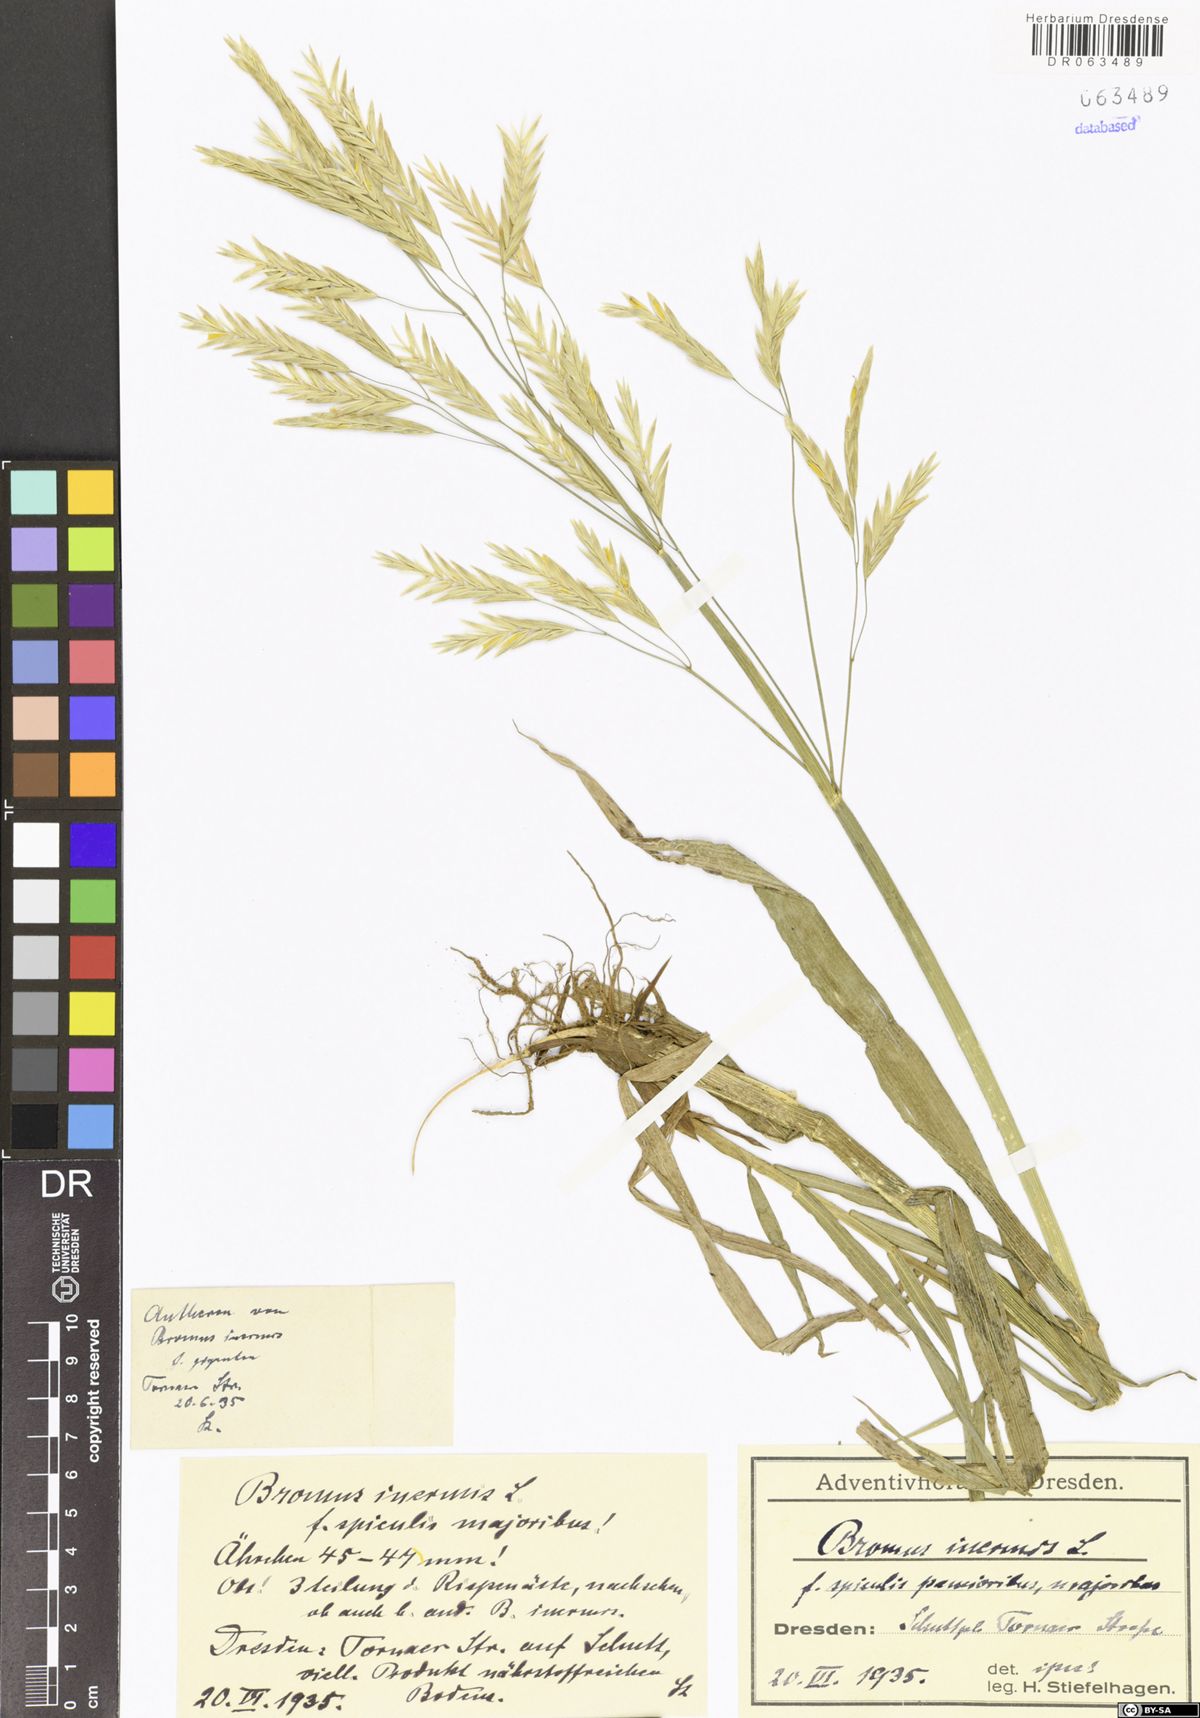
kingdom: Plantae
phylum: Tracheophyta
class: Liliopsida
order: Poales
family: Poaceae
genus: Bromus
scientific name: Bromus inermis
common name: Smooth brome
